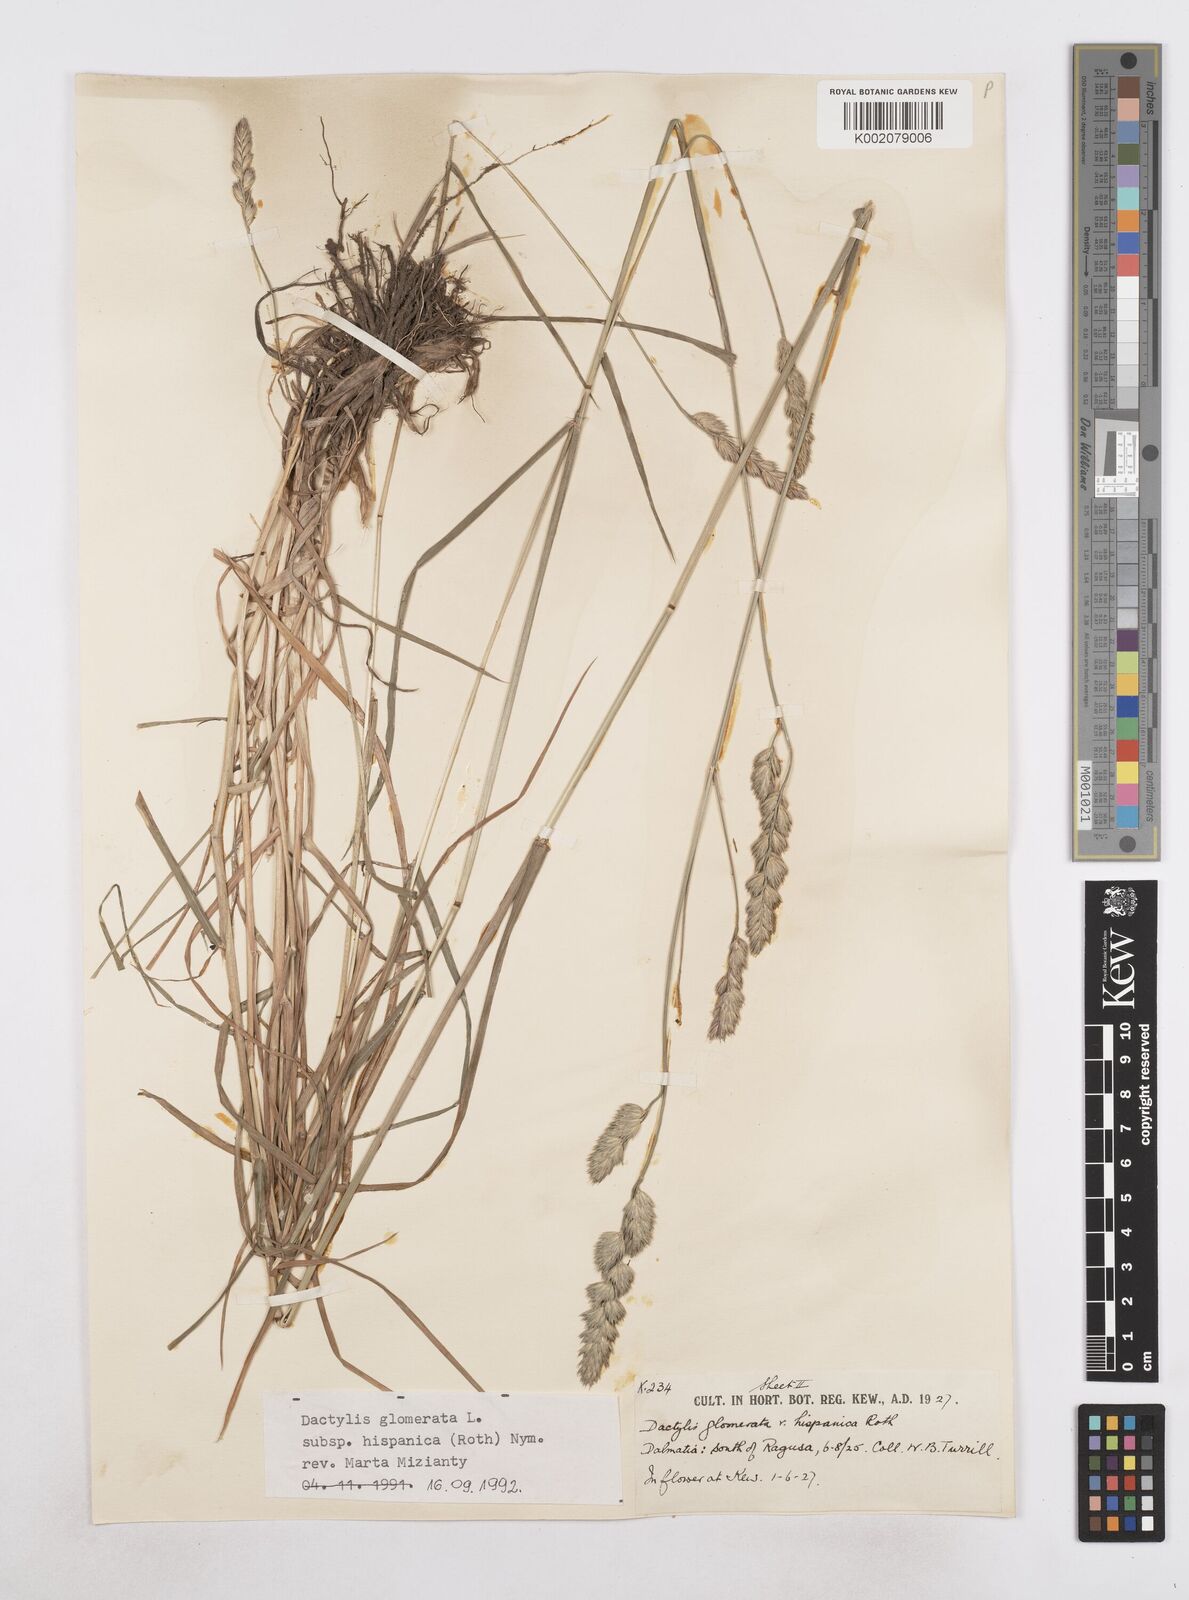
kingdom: Plantae
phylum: Tracheophyta
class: Liliopsida
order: Poales
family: Poaceae
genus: Dactylis
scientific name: Dactylis glomerata
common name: Orchardgrass
